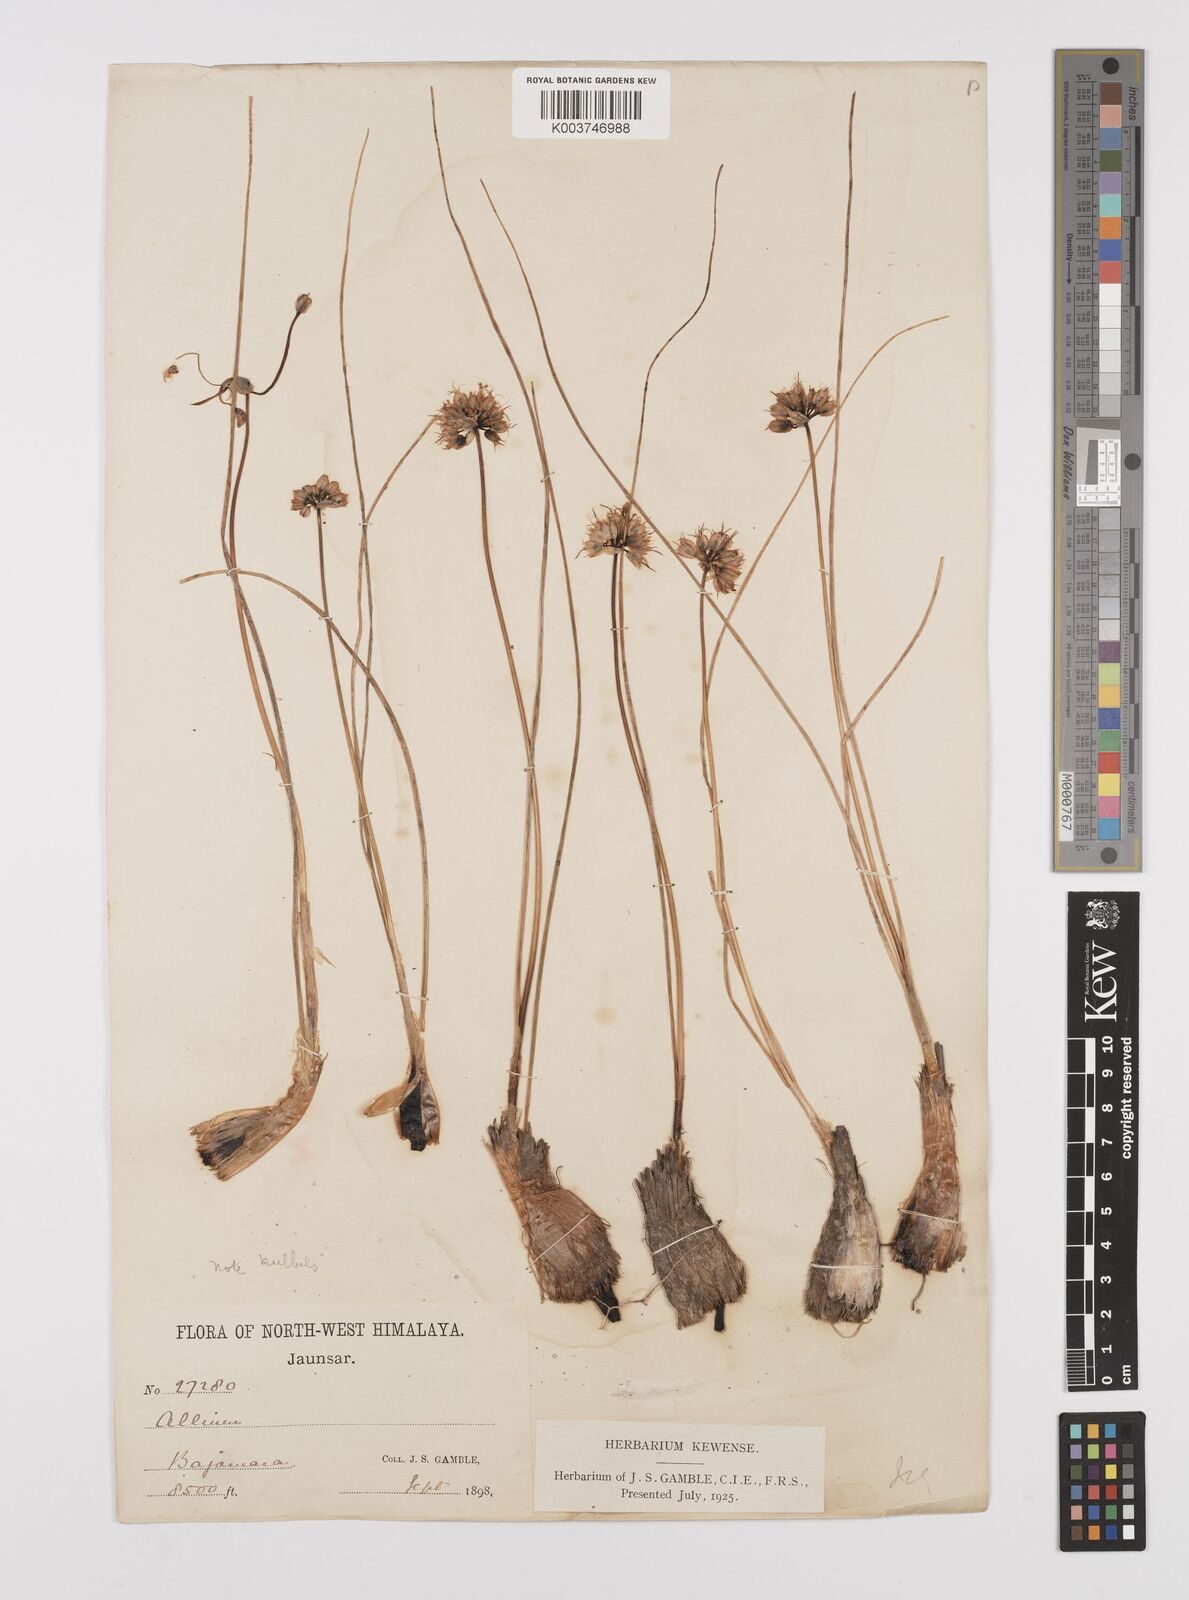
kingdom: Plantae
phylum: Tracheophyta
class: Liliopsida
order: Asparagales
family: Amaryllidaceae
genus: Allium
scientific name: Allium
